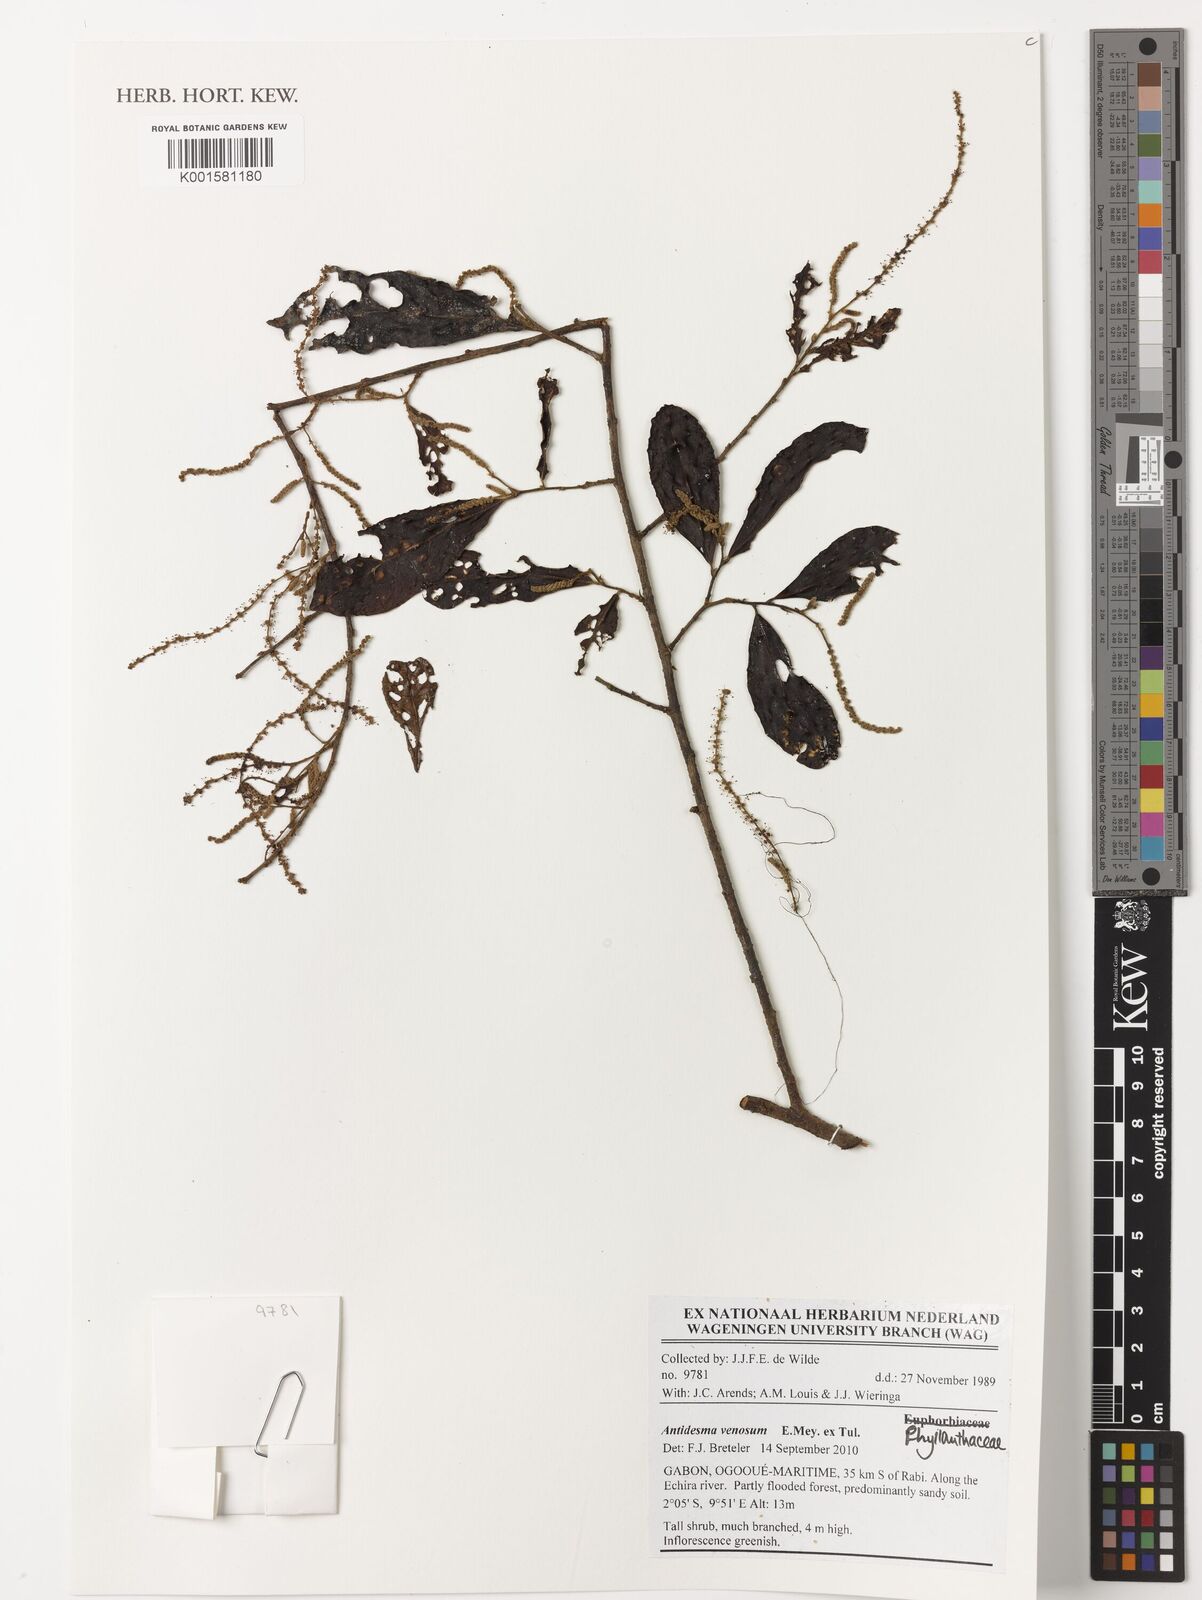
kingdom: Plantae
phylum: Tracheophyta
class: Magnoliopsida
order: Malpighiales
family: Phyllanthaceae
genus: Antidesma
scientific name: Antidesma venosum
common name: Tassel-berry
